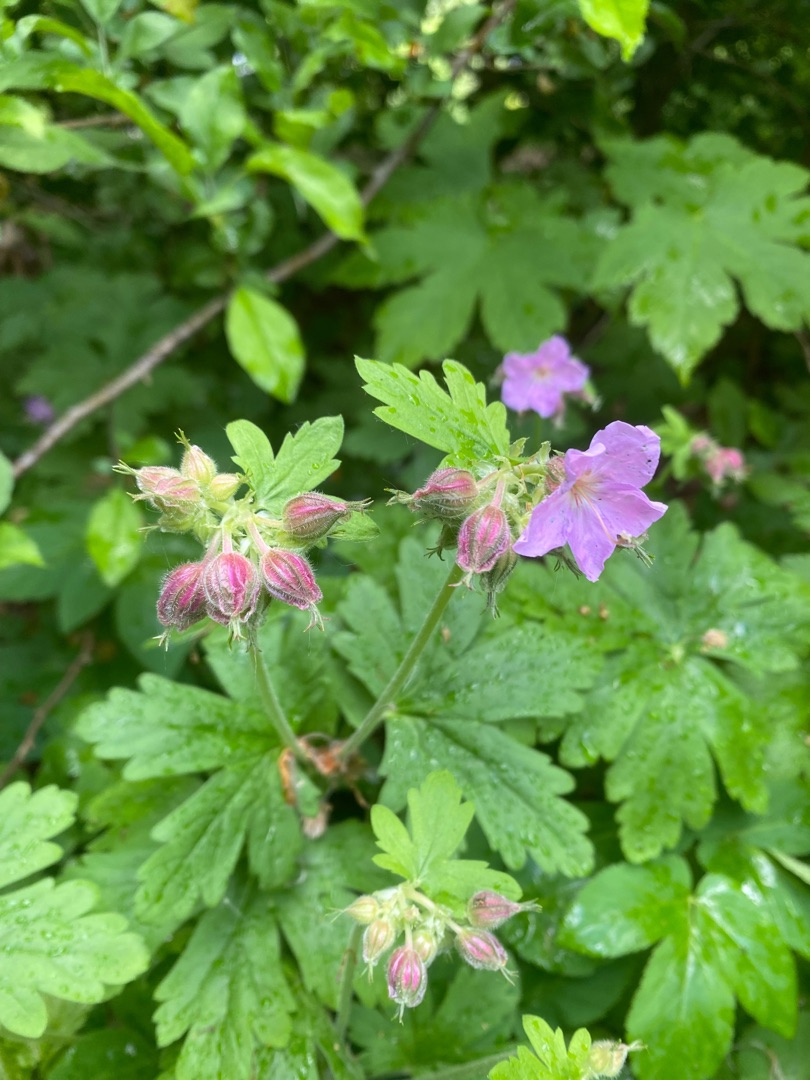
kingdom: Plantae
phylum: Tracheophyta
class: Magnoliopsida
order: Geraniales
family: Geraniaceae
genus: Geranium
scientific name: Geranium macrorrhizum
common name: Storrodet storkenæb
